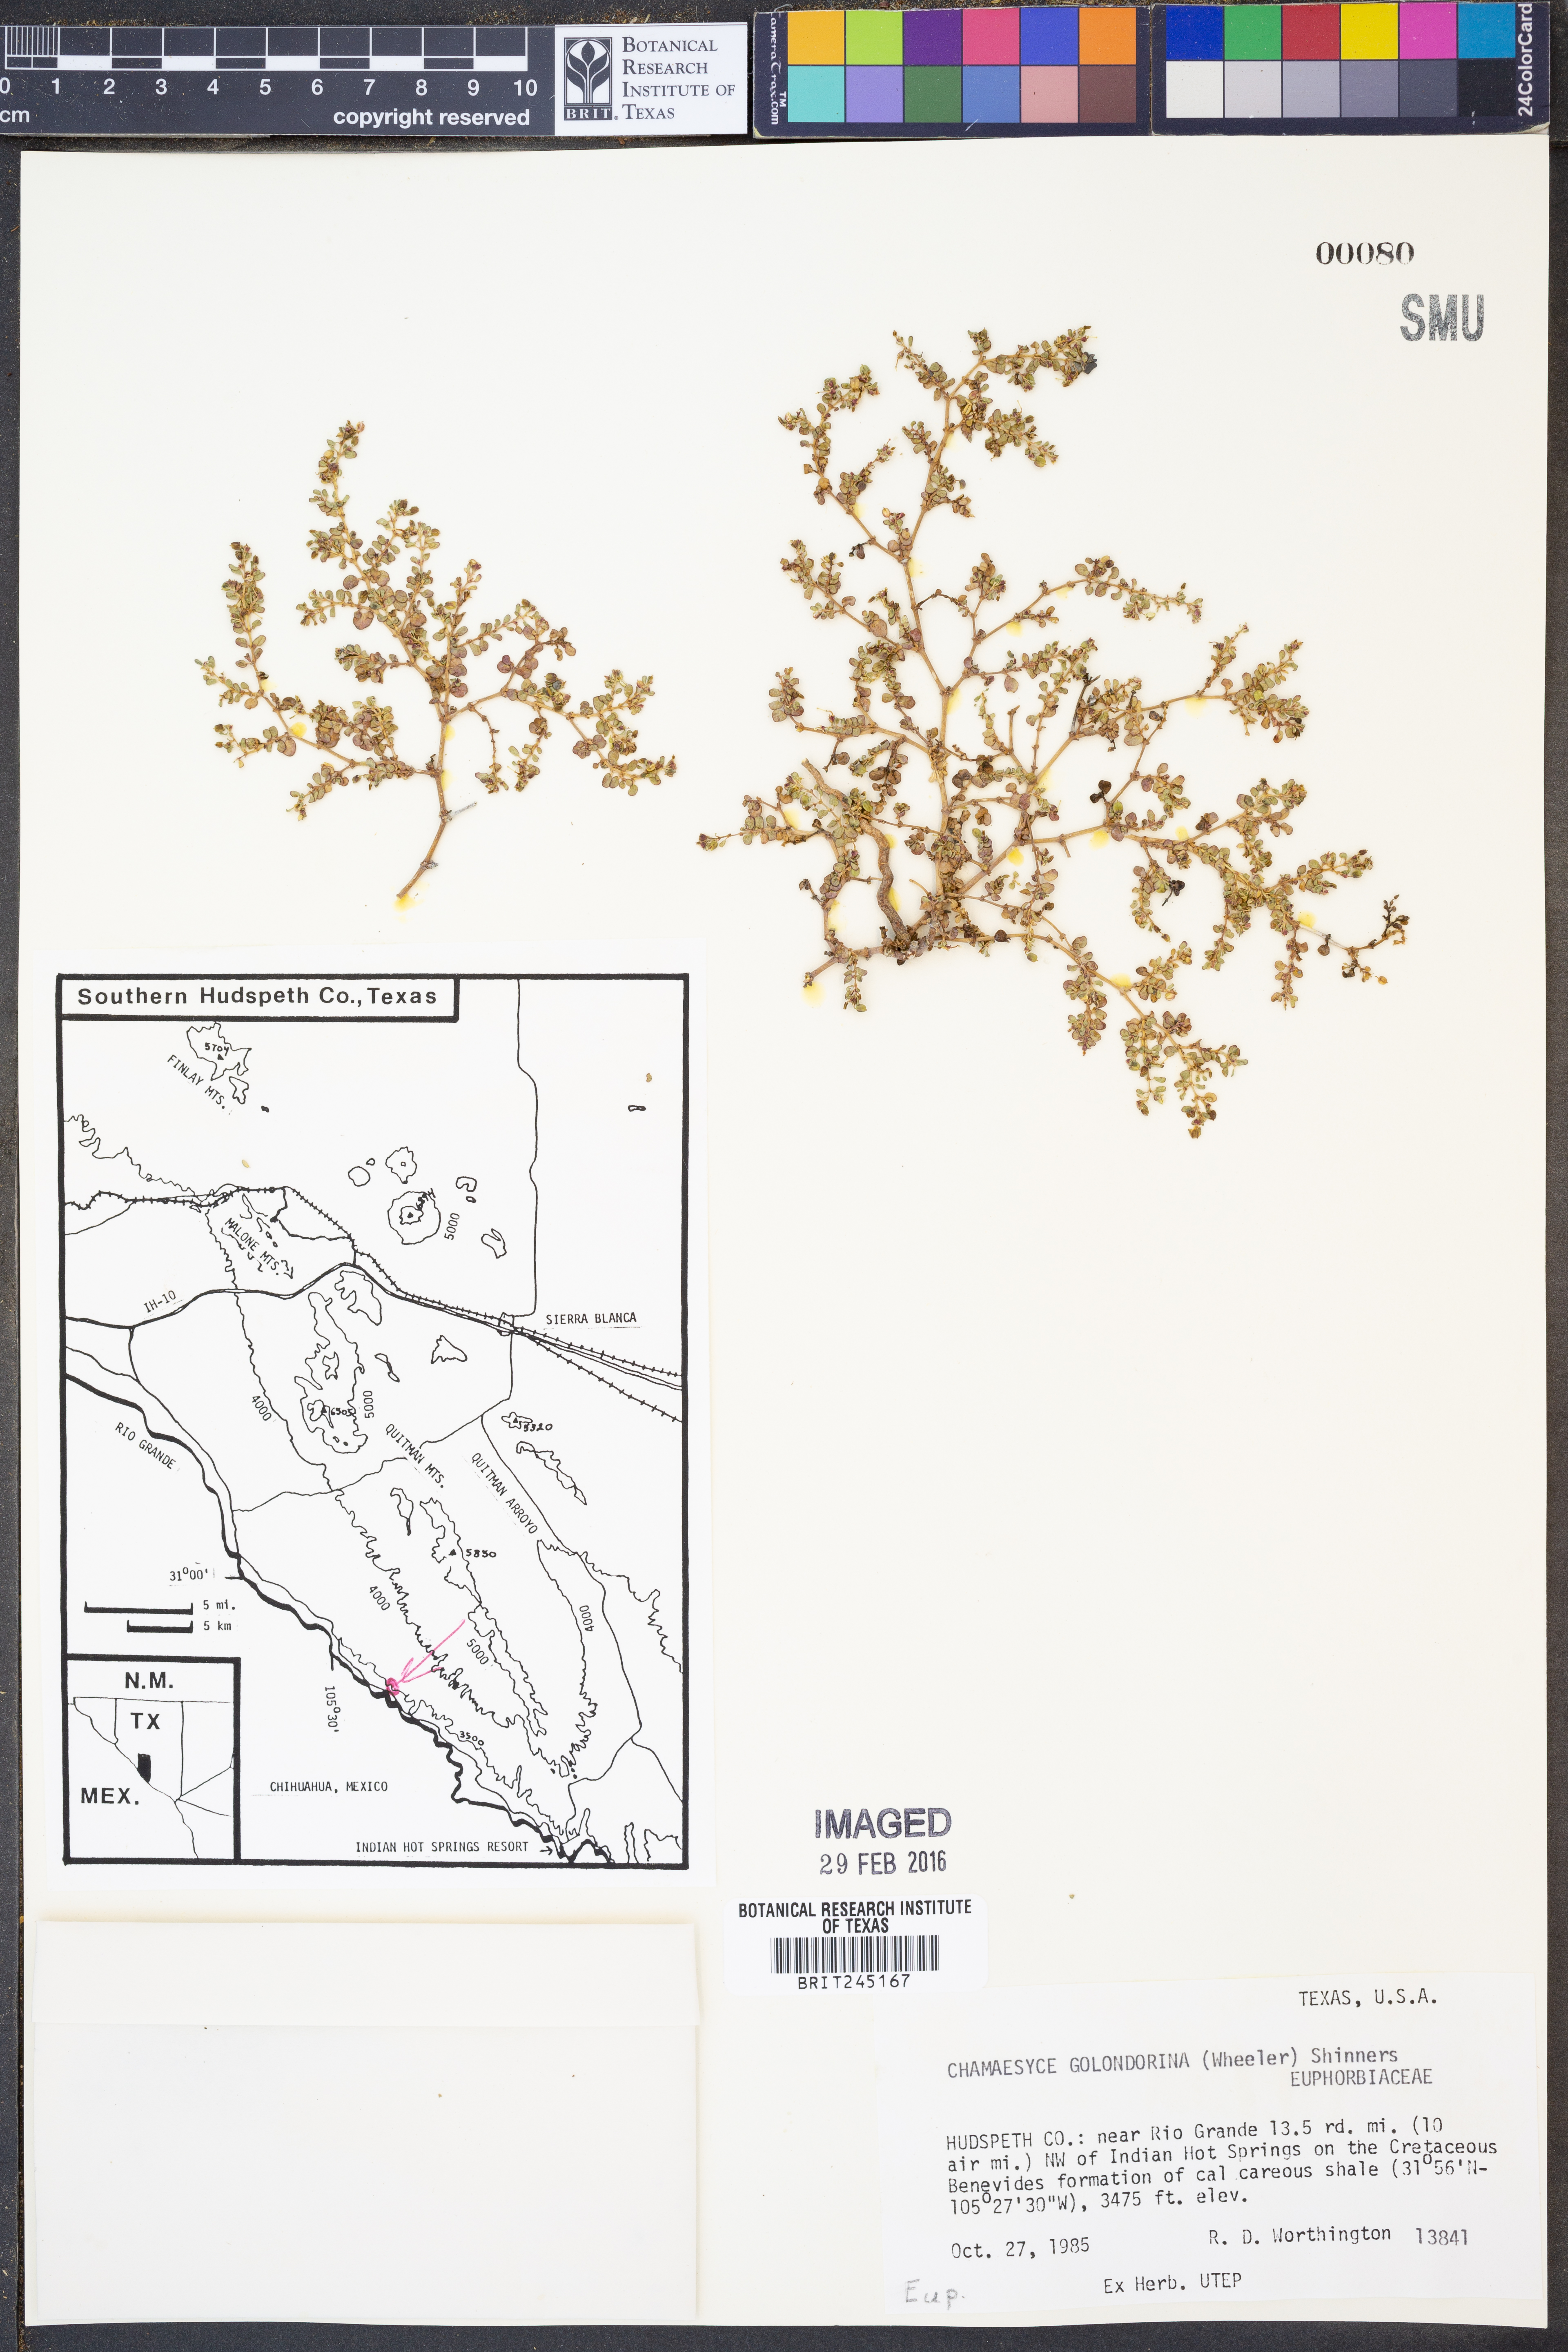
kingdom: Plantae
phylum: Tracheophyta
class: Magnoliopsida
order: Malpighiales
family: Euphorbiaceae
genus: Euphorbia
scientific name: Euphorbia cryptorubra
